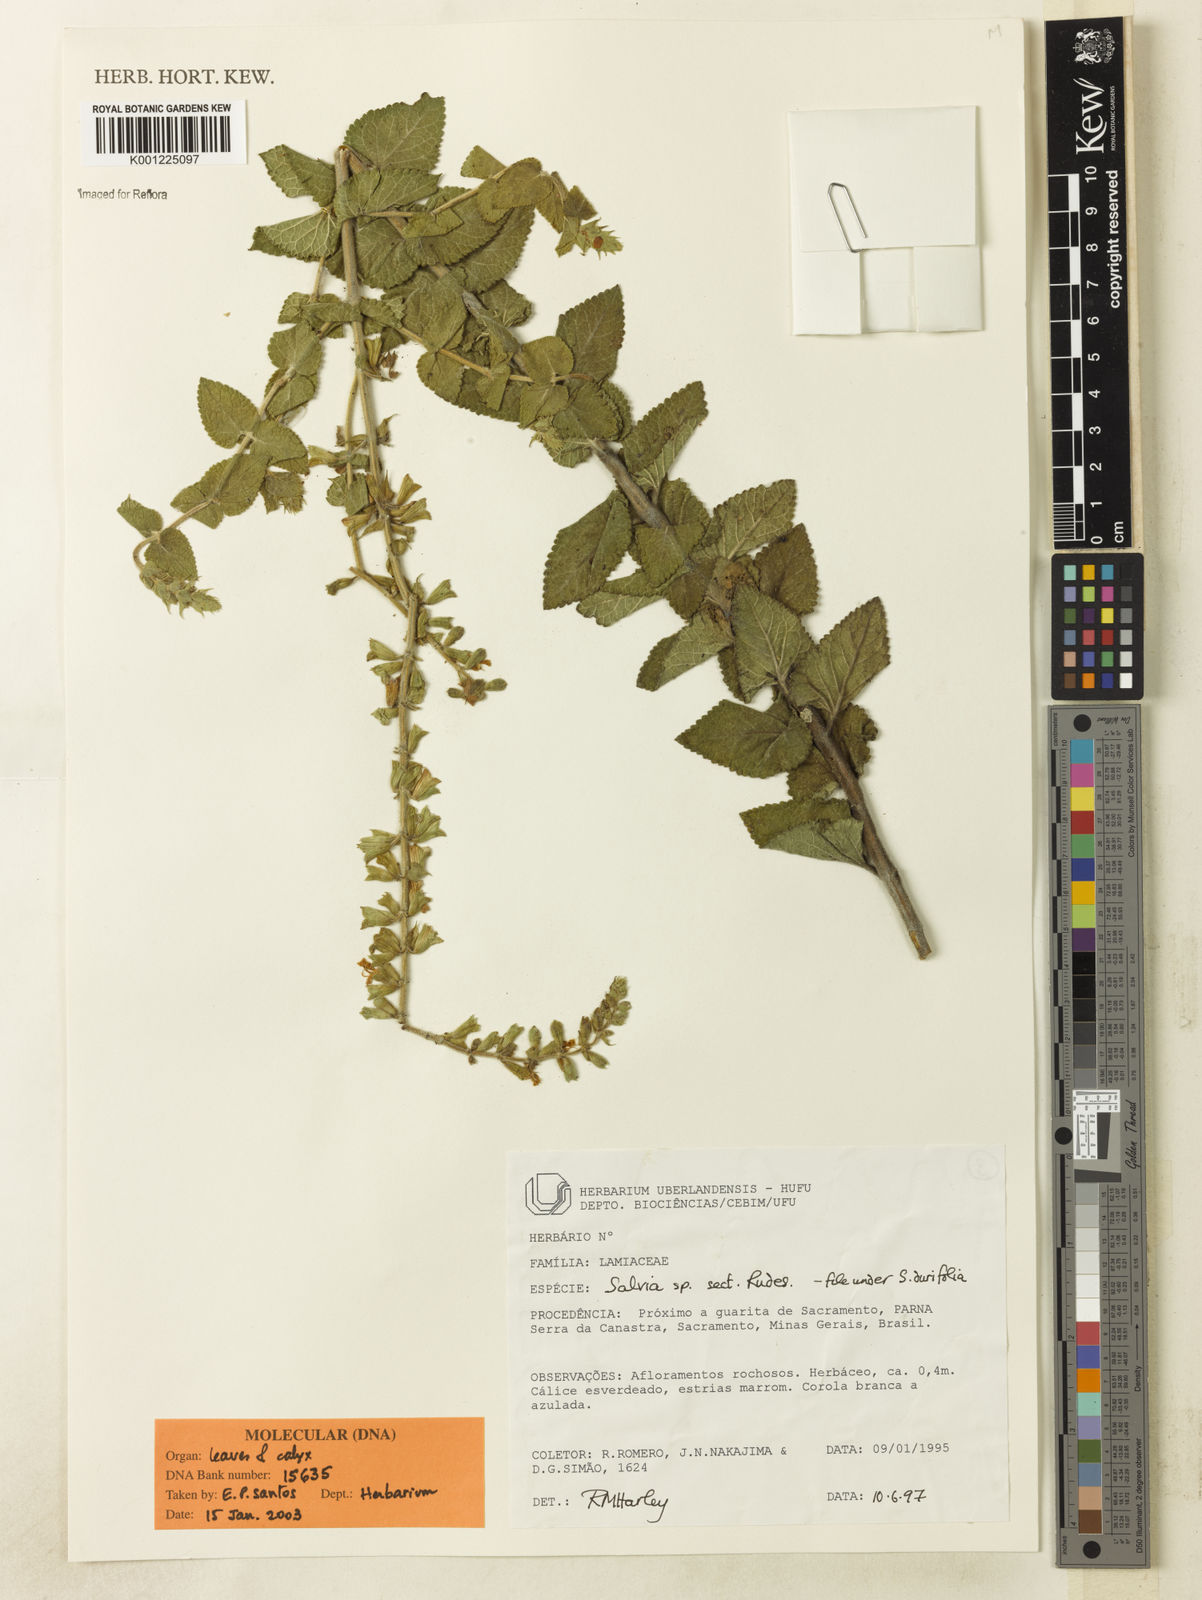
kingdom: Plantae
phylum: Tracheophyta
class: Magnoliopsida
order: Lamiales
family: Lamiaceae
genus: Salvia
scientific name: Salvia ovalifolia
